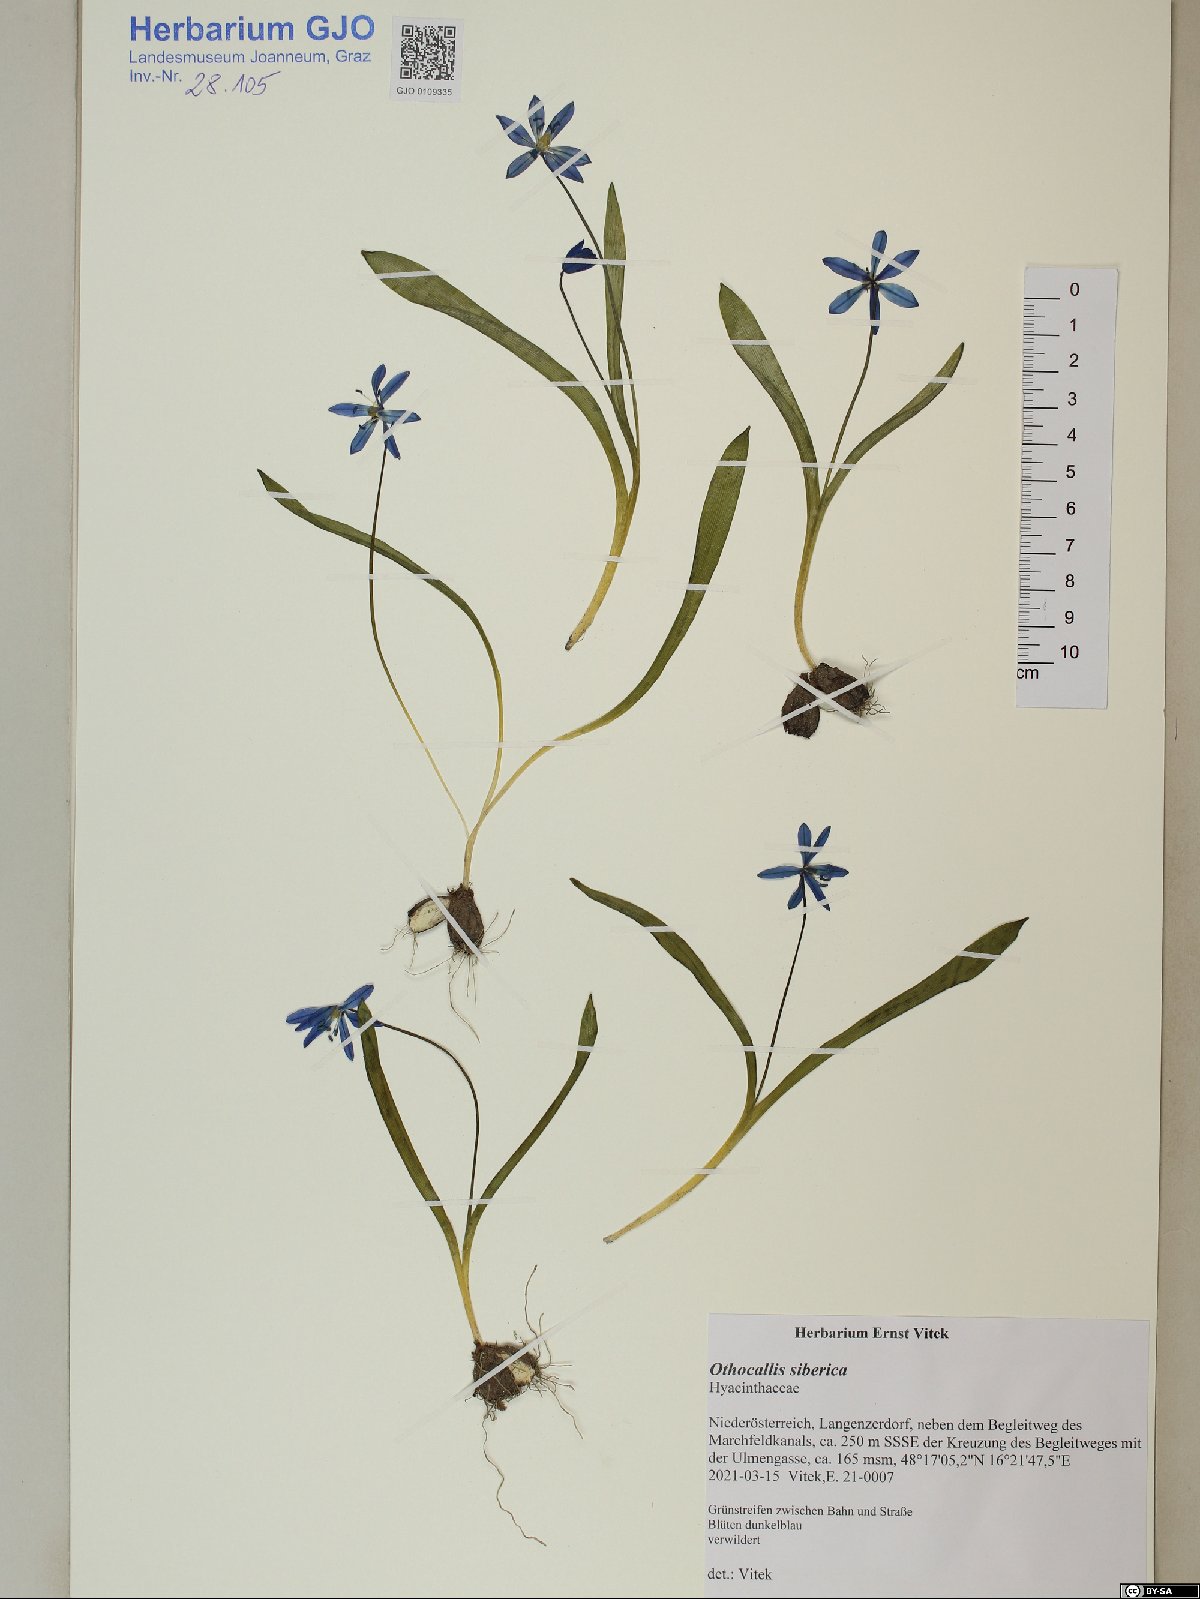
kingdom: Plantae
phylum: Tracheophyta
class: Liliopsida
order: Asparagales
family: Asparagaceae
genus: Scilla
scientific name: Scilla siberica
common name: Siberian squill
